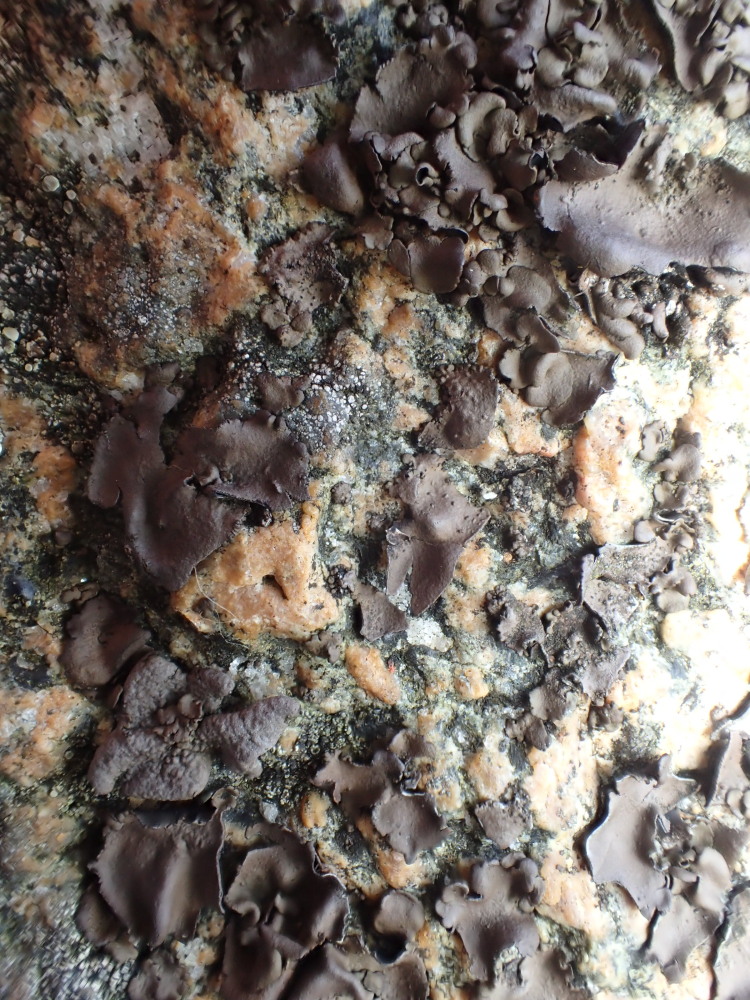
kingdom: Fungi
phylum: Ascomycota
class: Lecanoromycetes
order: Umbilicariales
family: Umbilicariaceae
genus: Umbilicaria
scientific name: Umbilicaria polyphylla
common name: glat navlelav
